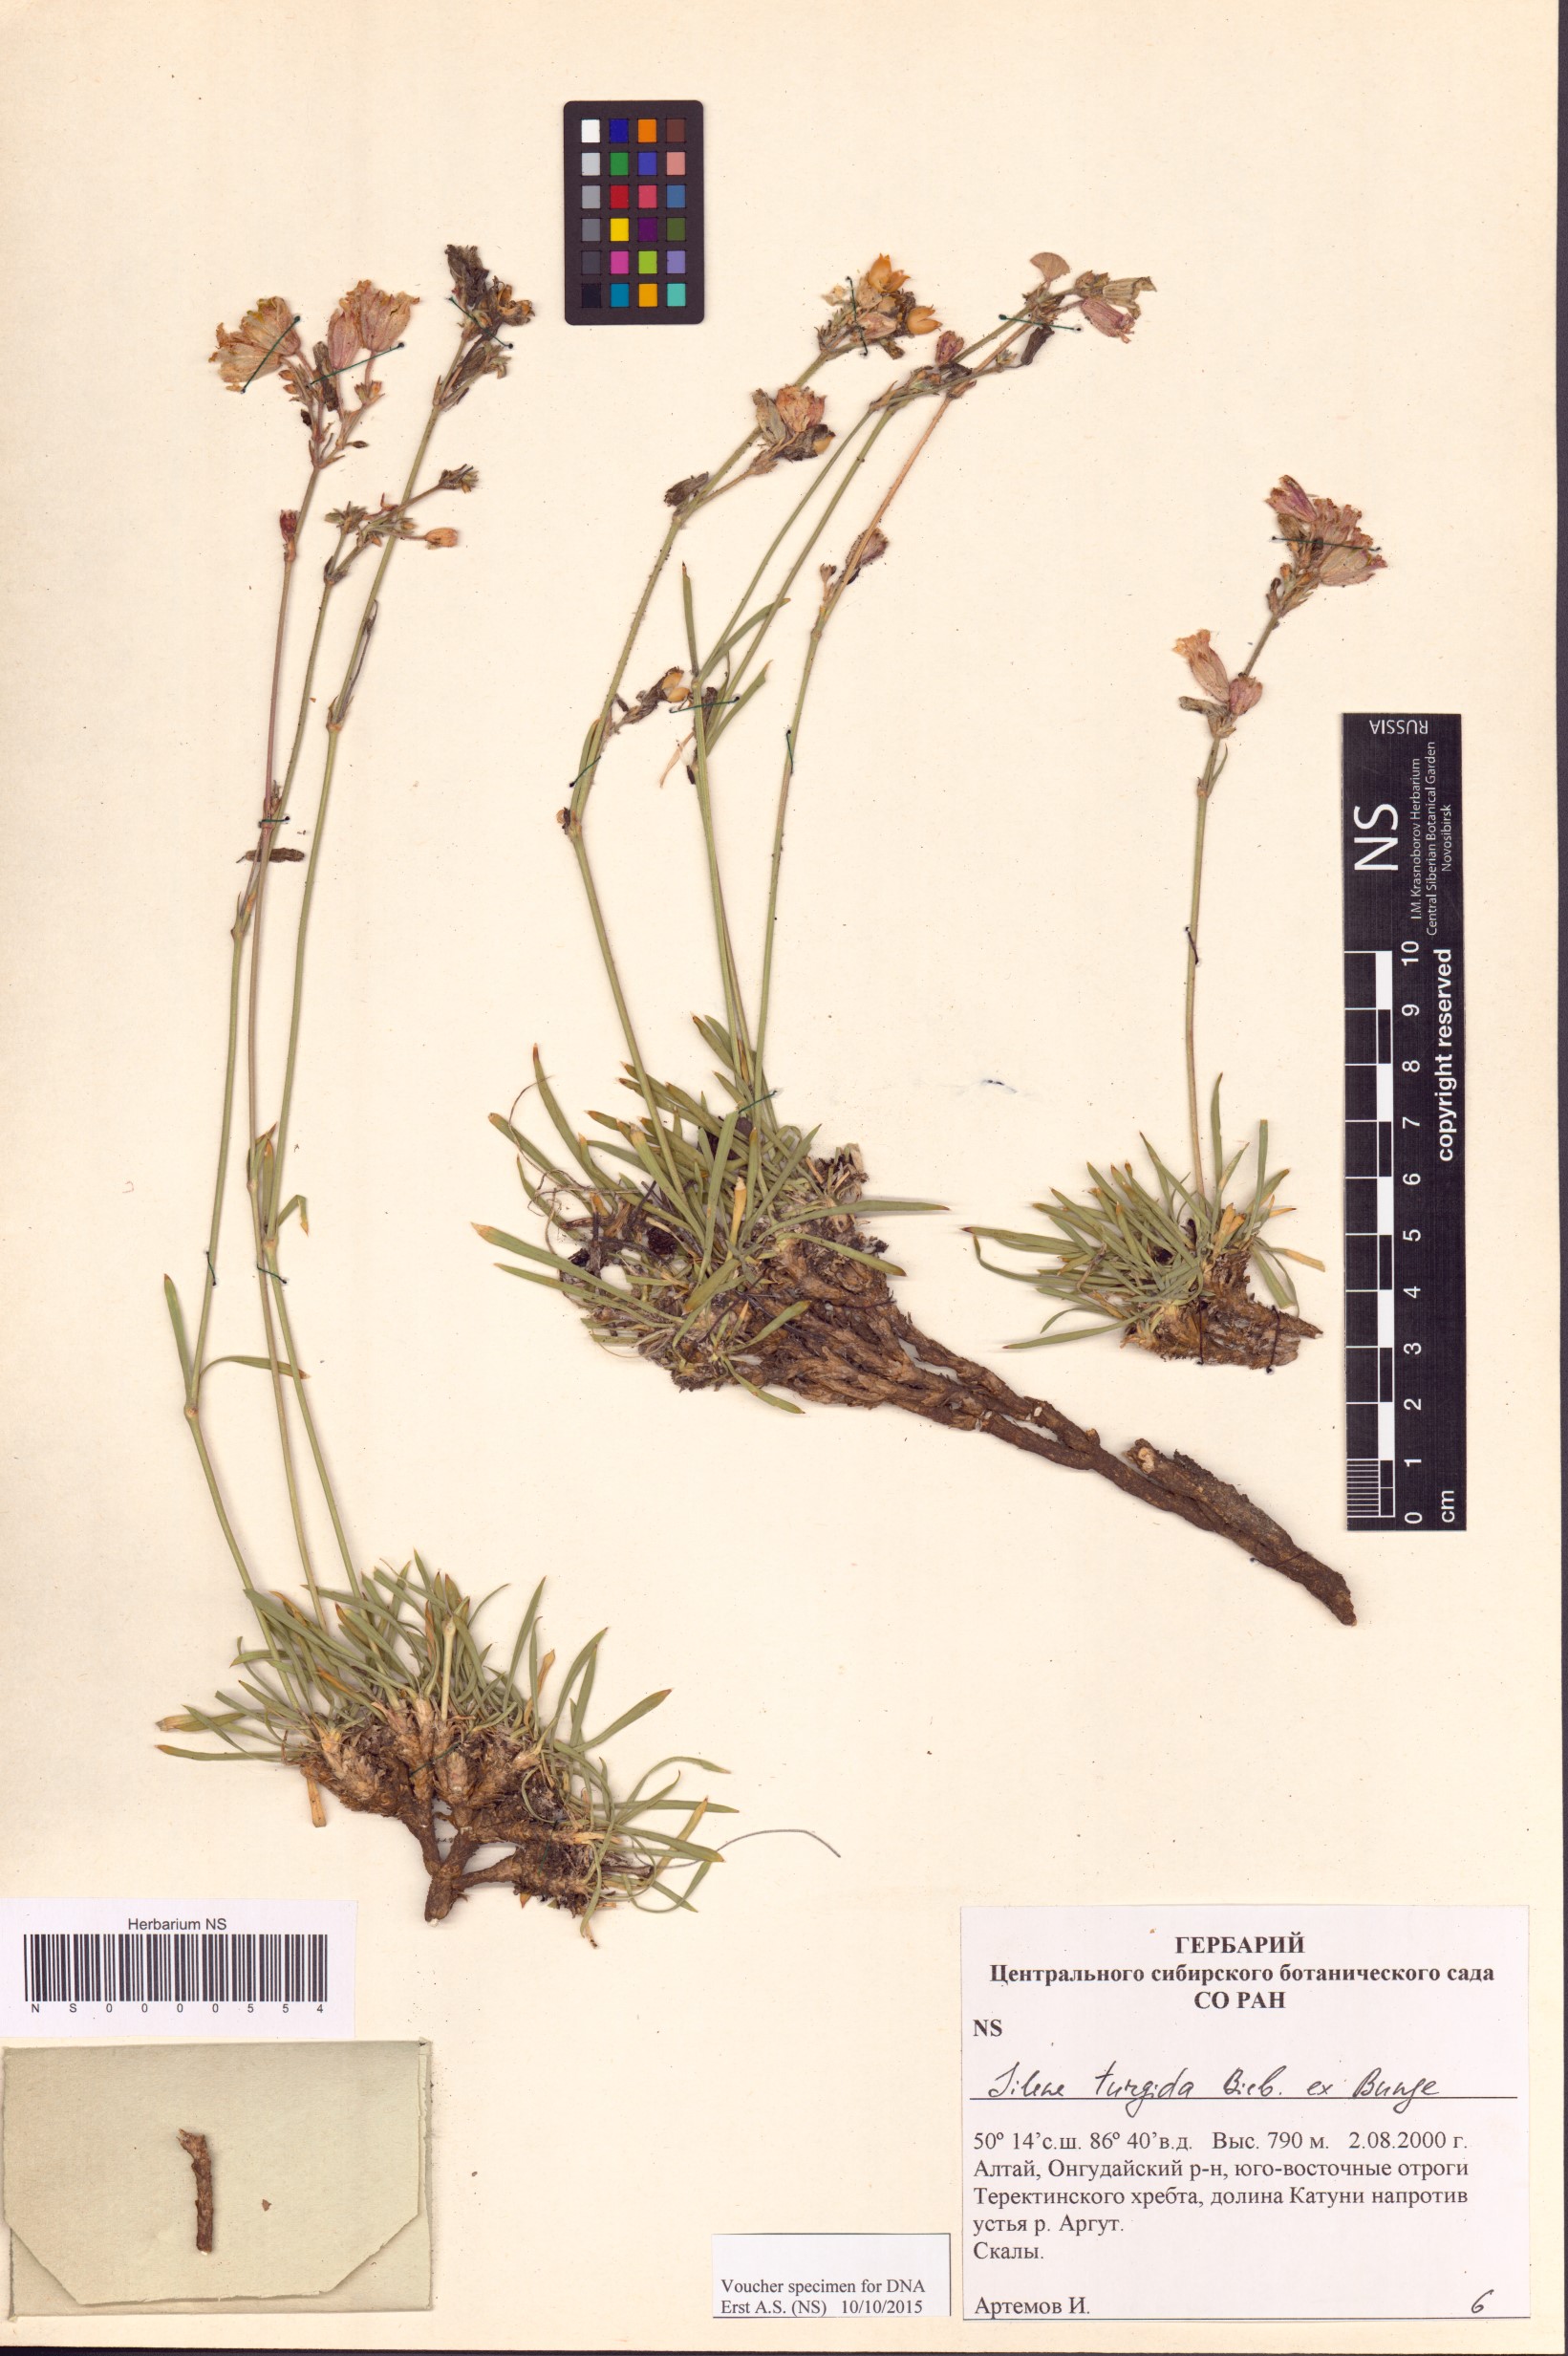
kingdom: Plantae
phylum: Tracheophyta
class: Magnoliopsida
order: Caryophyllales
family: Caryophyllaceae
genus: Silene
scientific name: Silene turgida
